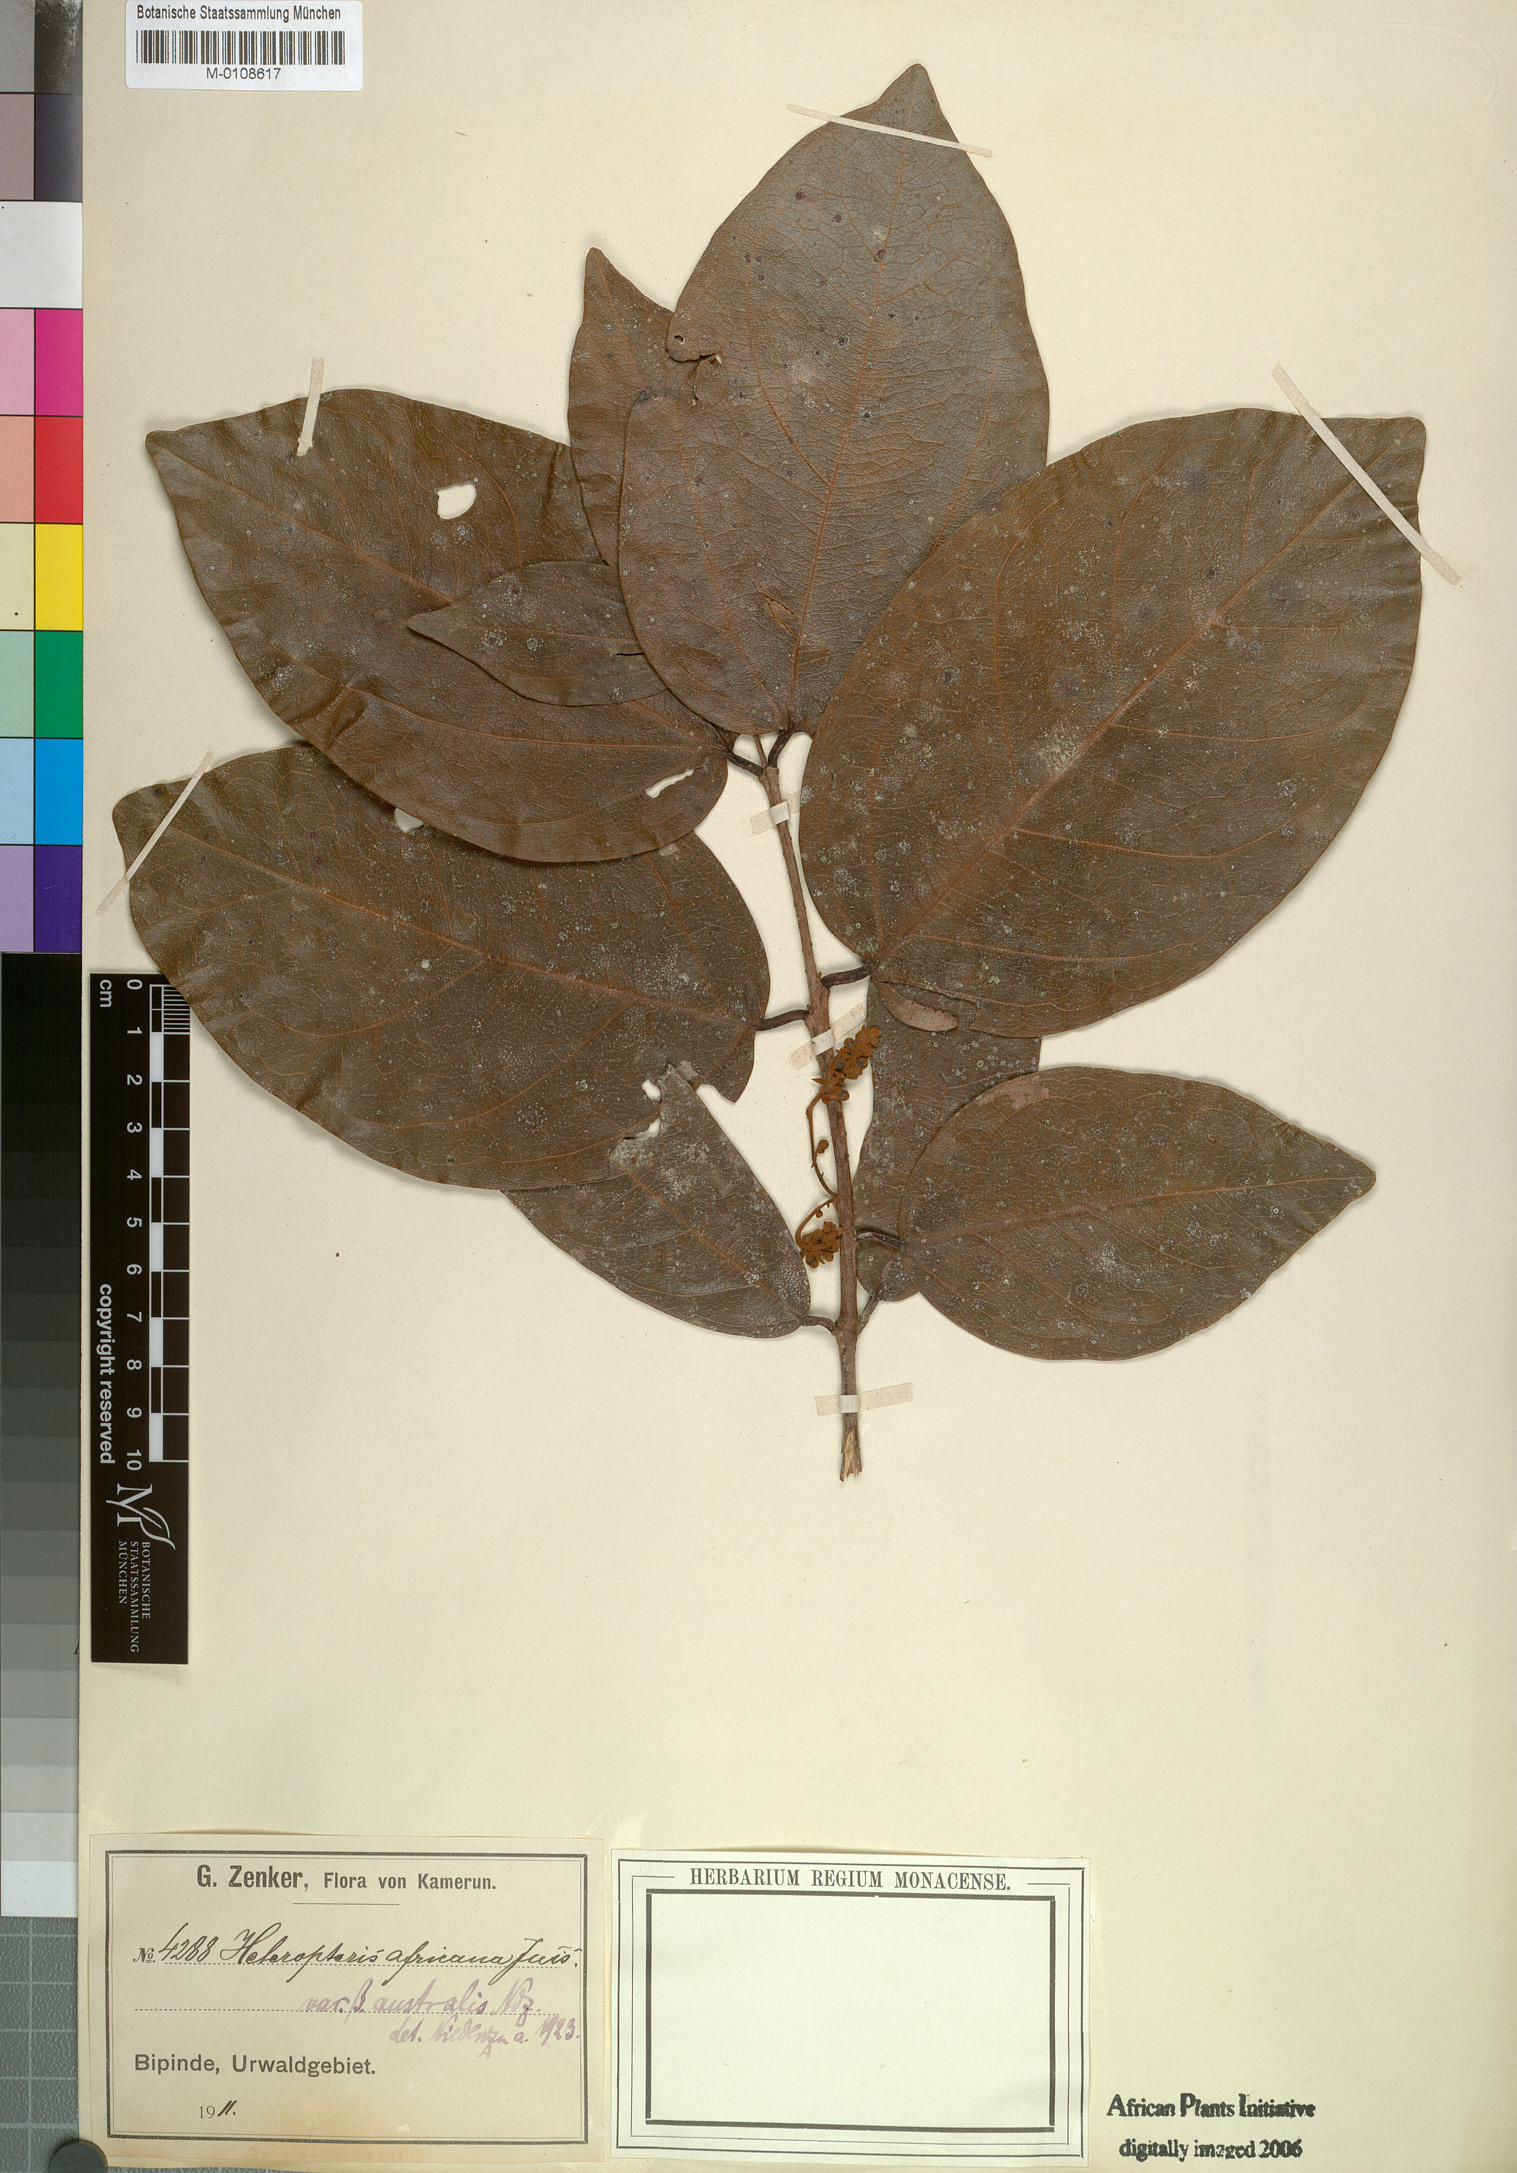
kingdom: Plantae
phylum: Tracheophyta
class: Magnoliopsida
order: Malpighiales
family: Malpighiaceae
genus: Heteropterys
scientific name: Heteropterys leona
